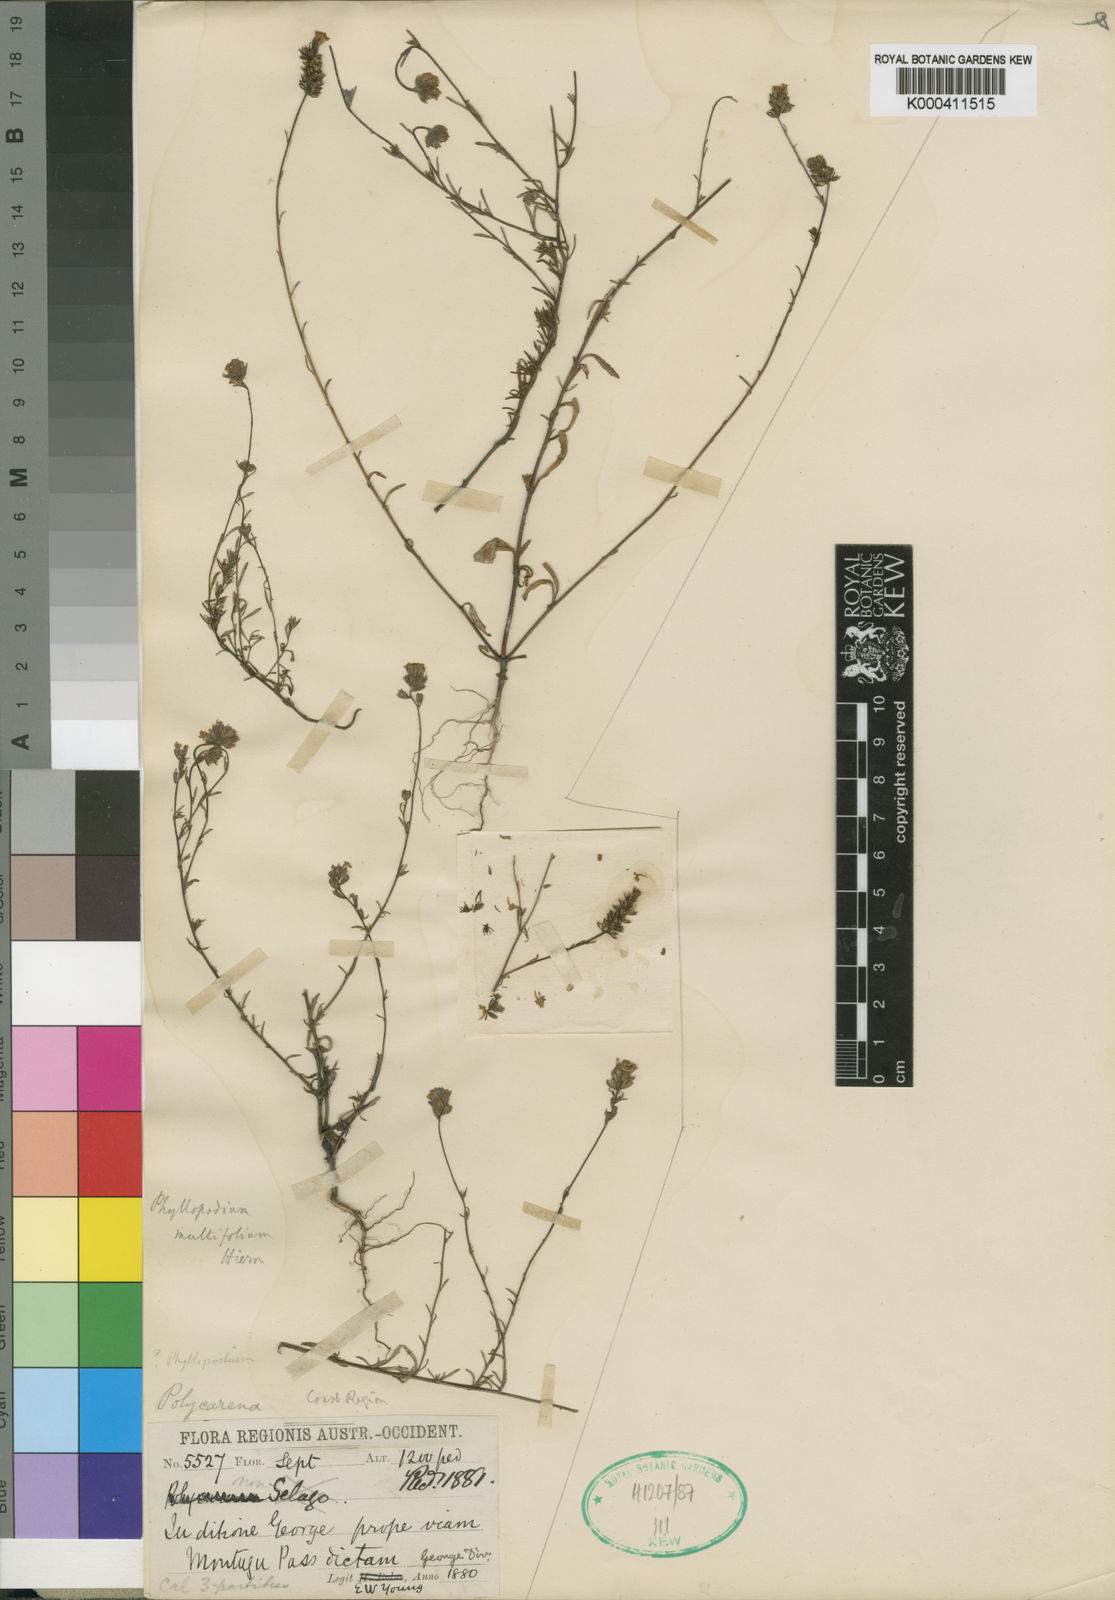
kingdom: Plantae
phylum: Tracheophyta
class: Magnoliopsida
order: Lamiales
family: Scrophulariaceae
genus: Phyllopodium
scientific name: Phyllopodium multifolium
